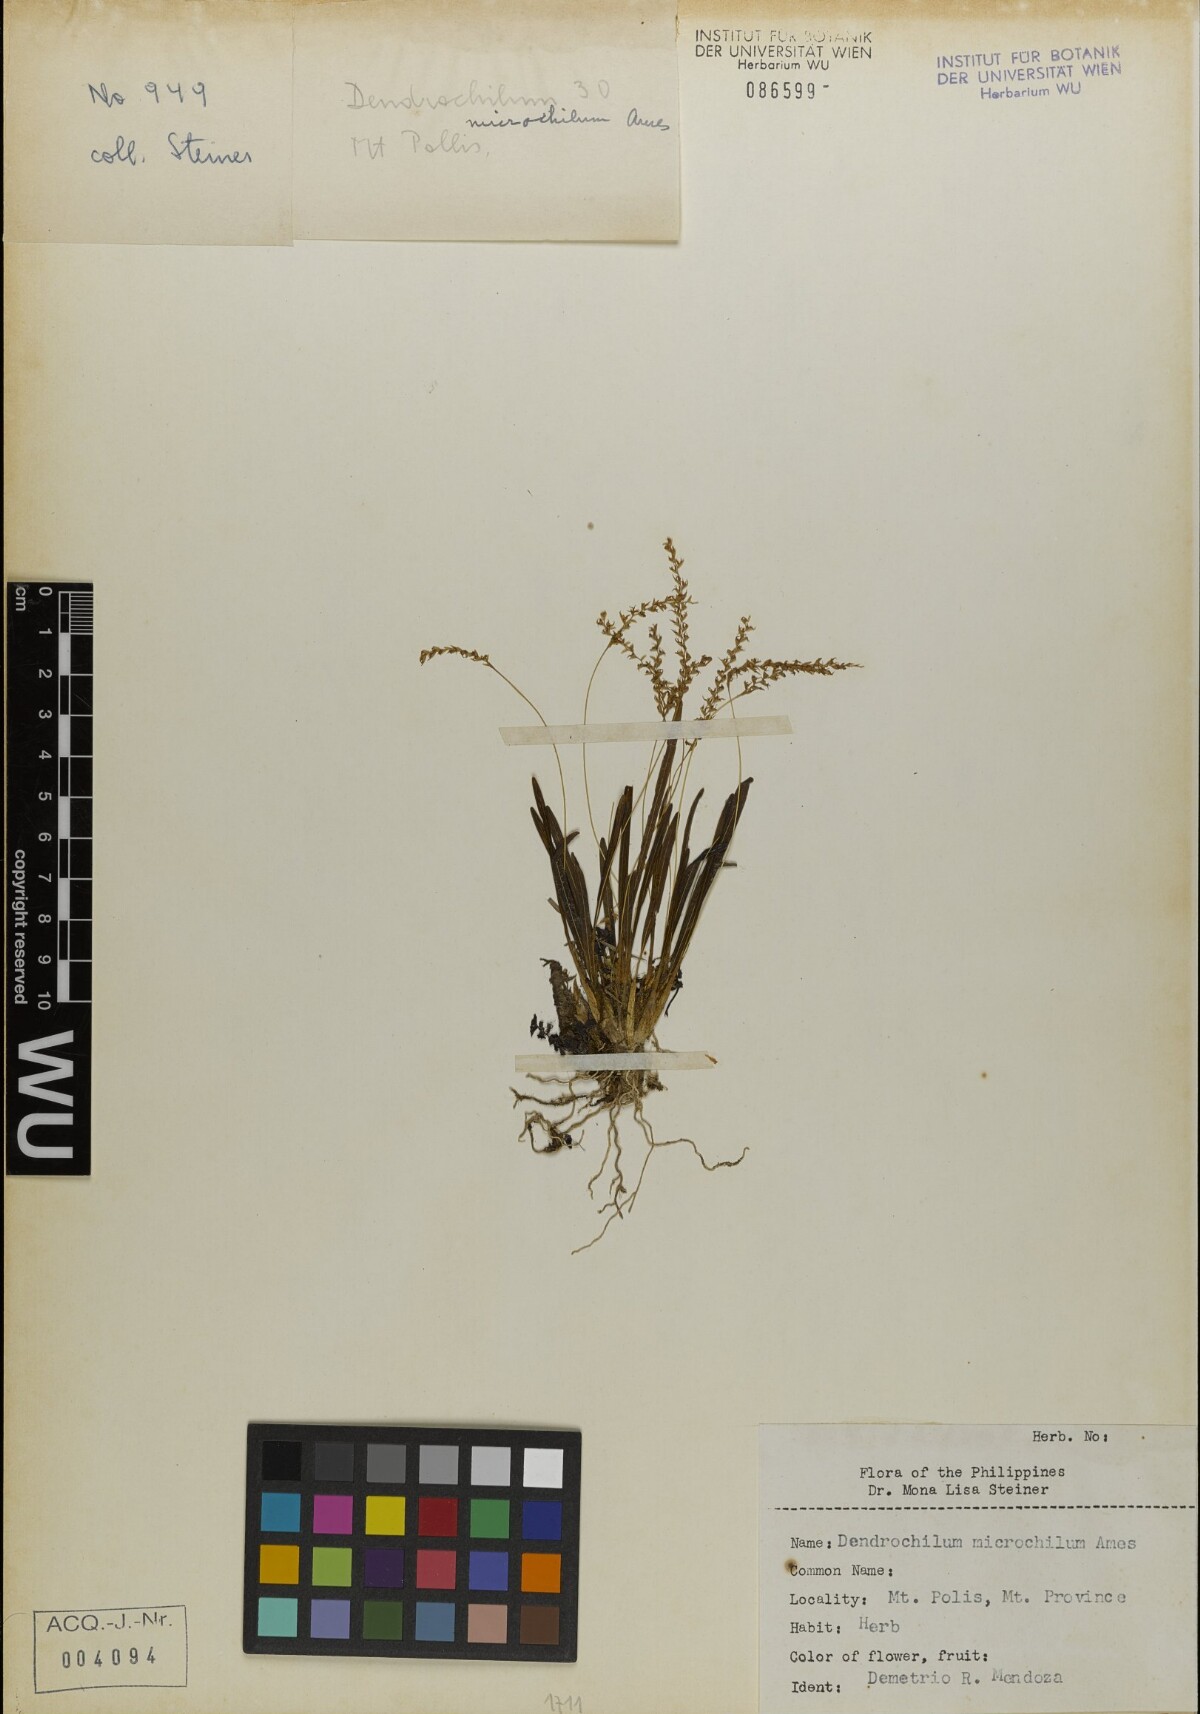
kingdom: Plantae
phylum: Tracheophyta
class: Liliopsida
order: Asparagales
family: Orchidaceae
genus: Coelogyne
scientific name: Coelogyne microchila
